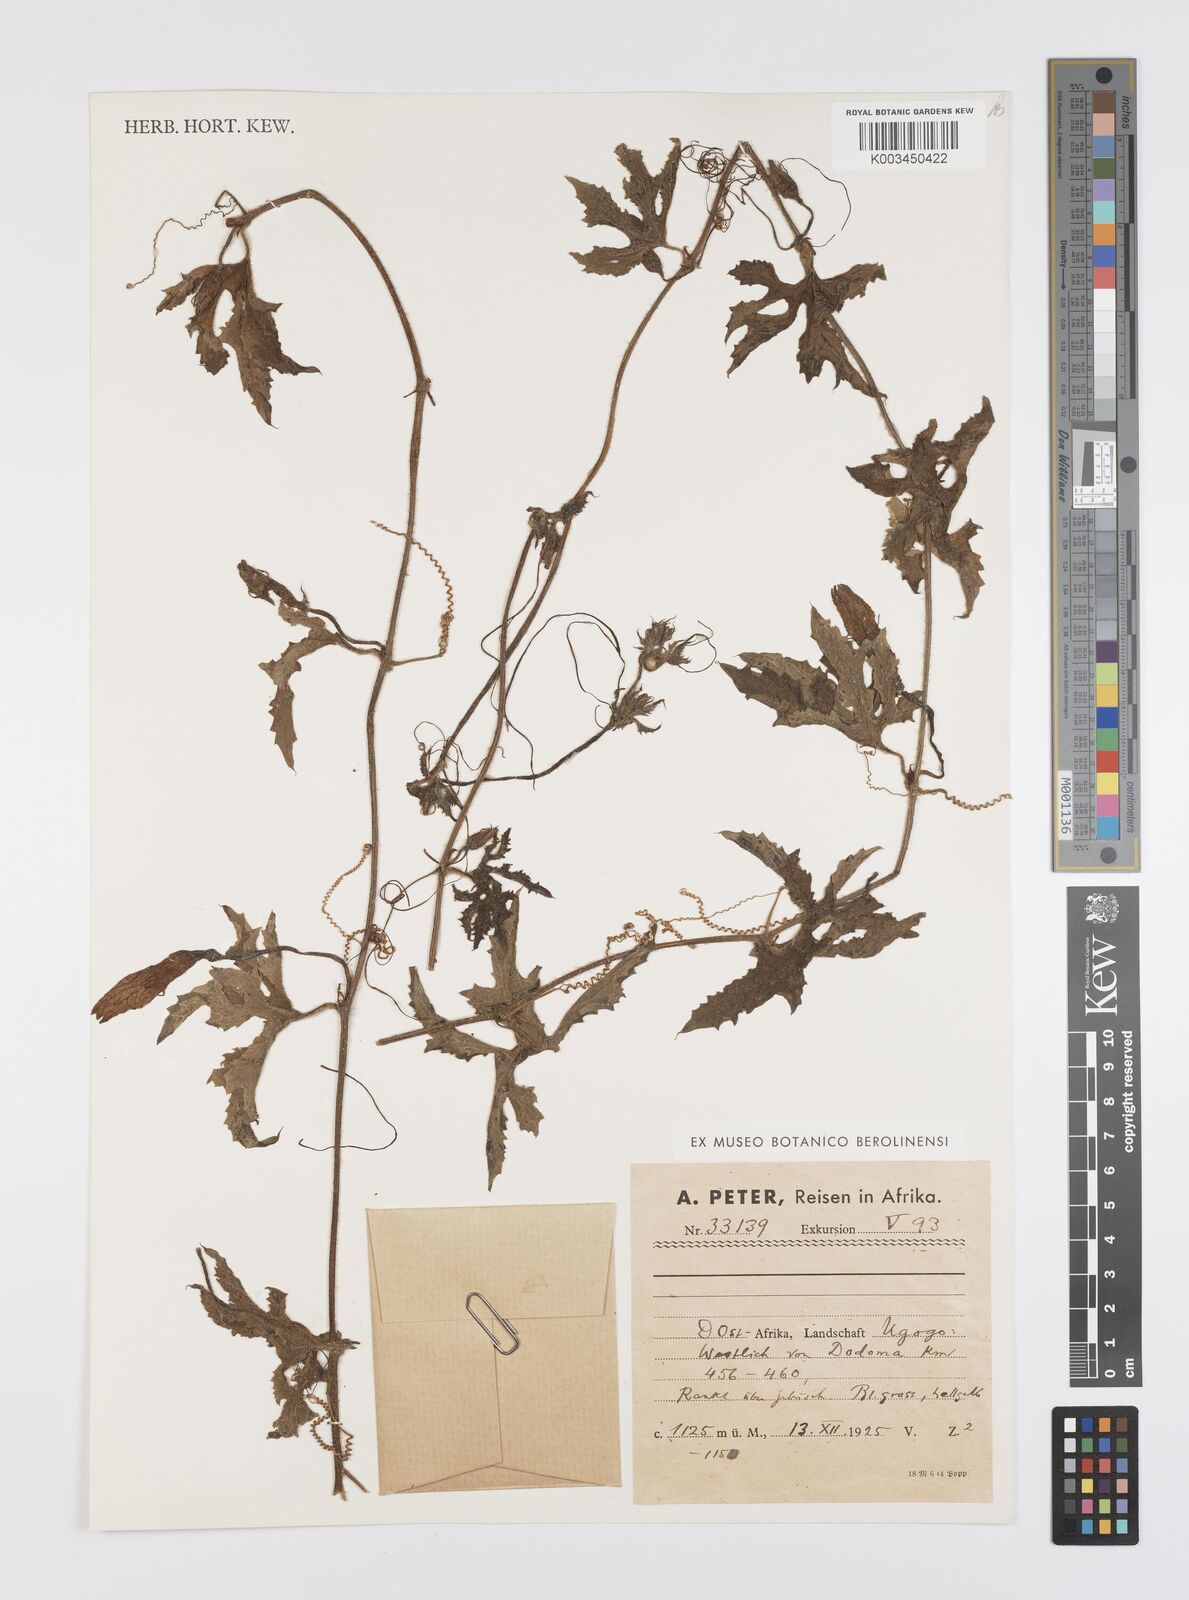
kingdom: Plantae
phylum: Tracheophyta
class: Magnoliopsida
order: Cucurbitales
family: Cucurbitaceae
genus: Peponium
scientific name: Peponium vogelii
